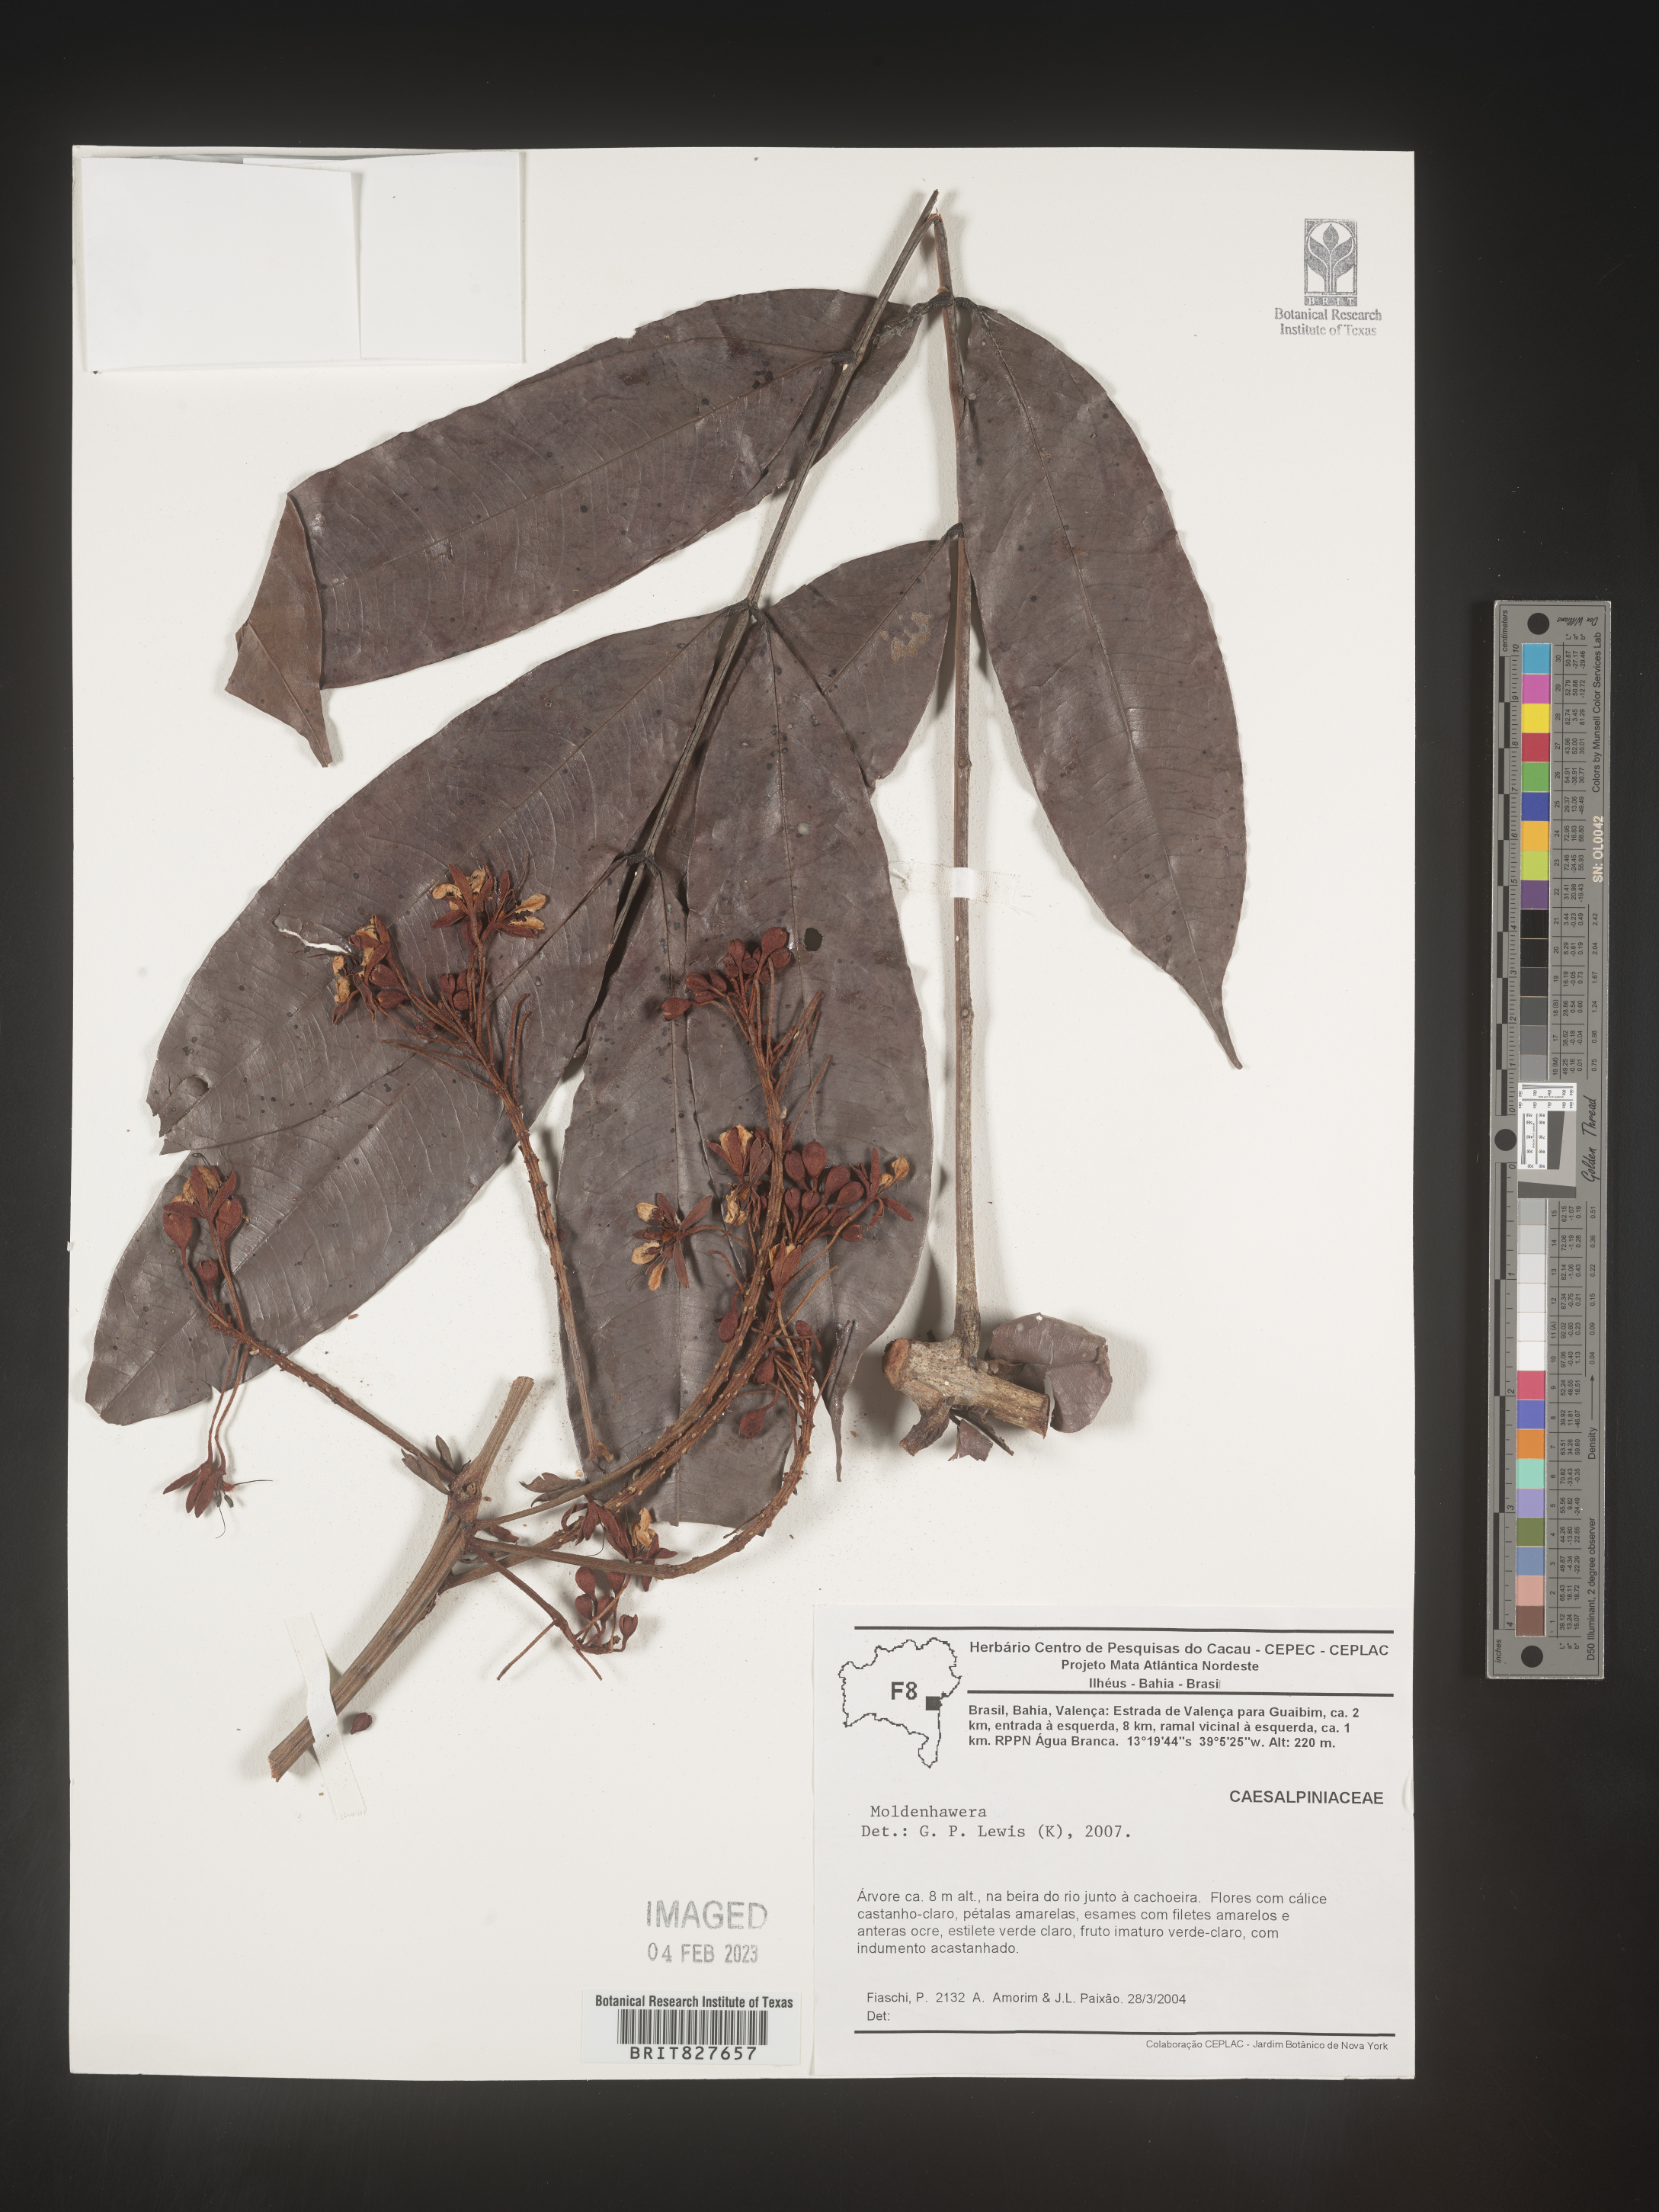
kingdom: Plantae
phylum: Tracheophyta
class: Magnoliopsida
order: Fabales
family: Fabaceae
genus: Moldenhawera
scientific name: Moldenhawera
